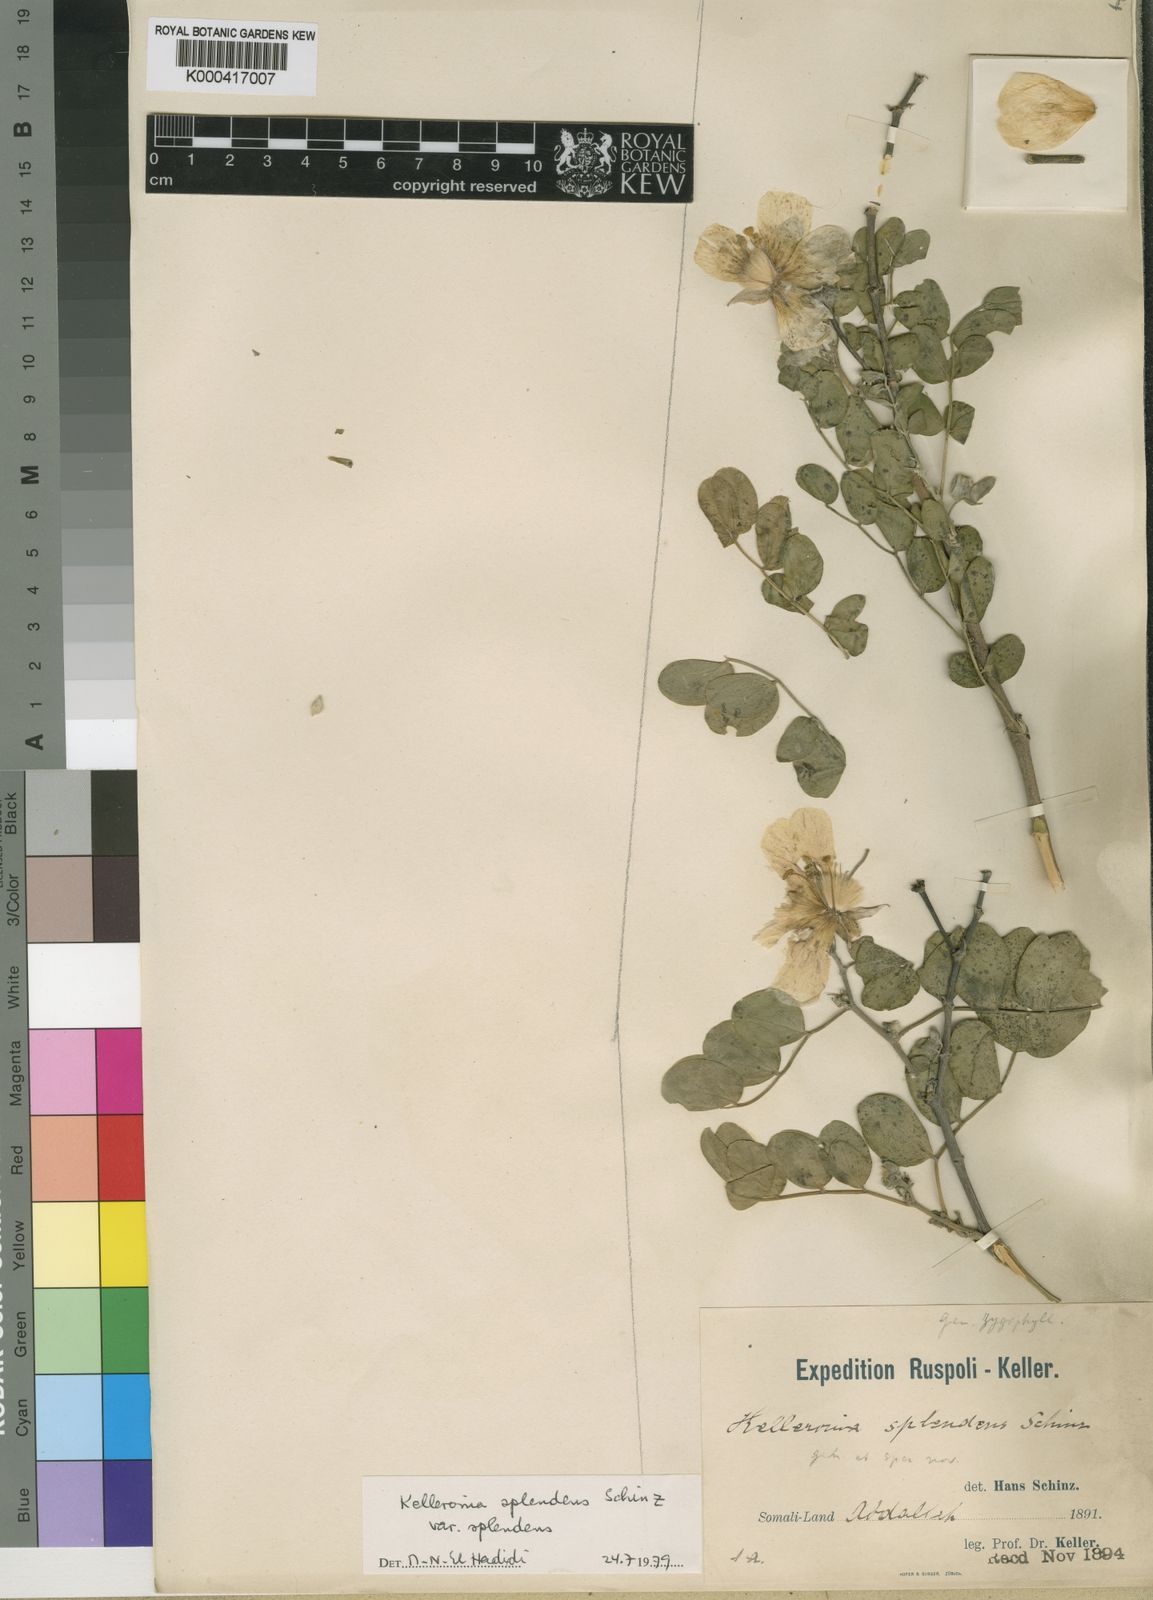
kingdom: Plantae
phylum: Tracheophyta
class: Magnoliopsida
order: Zygophyllales
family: Zygophyllaceae
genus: Kelleronia
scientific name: Kelleronia splendens
